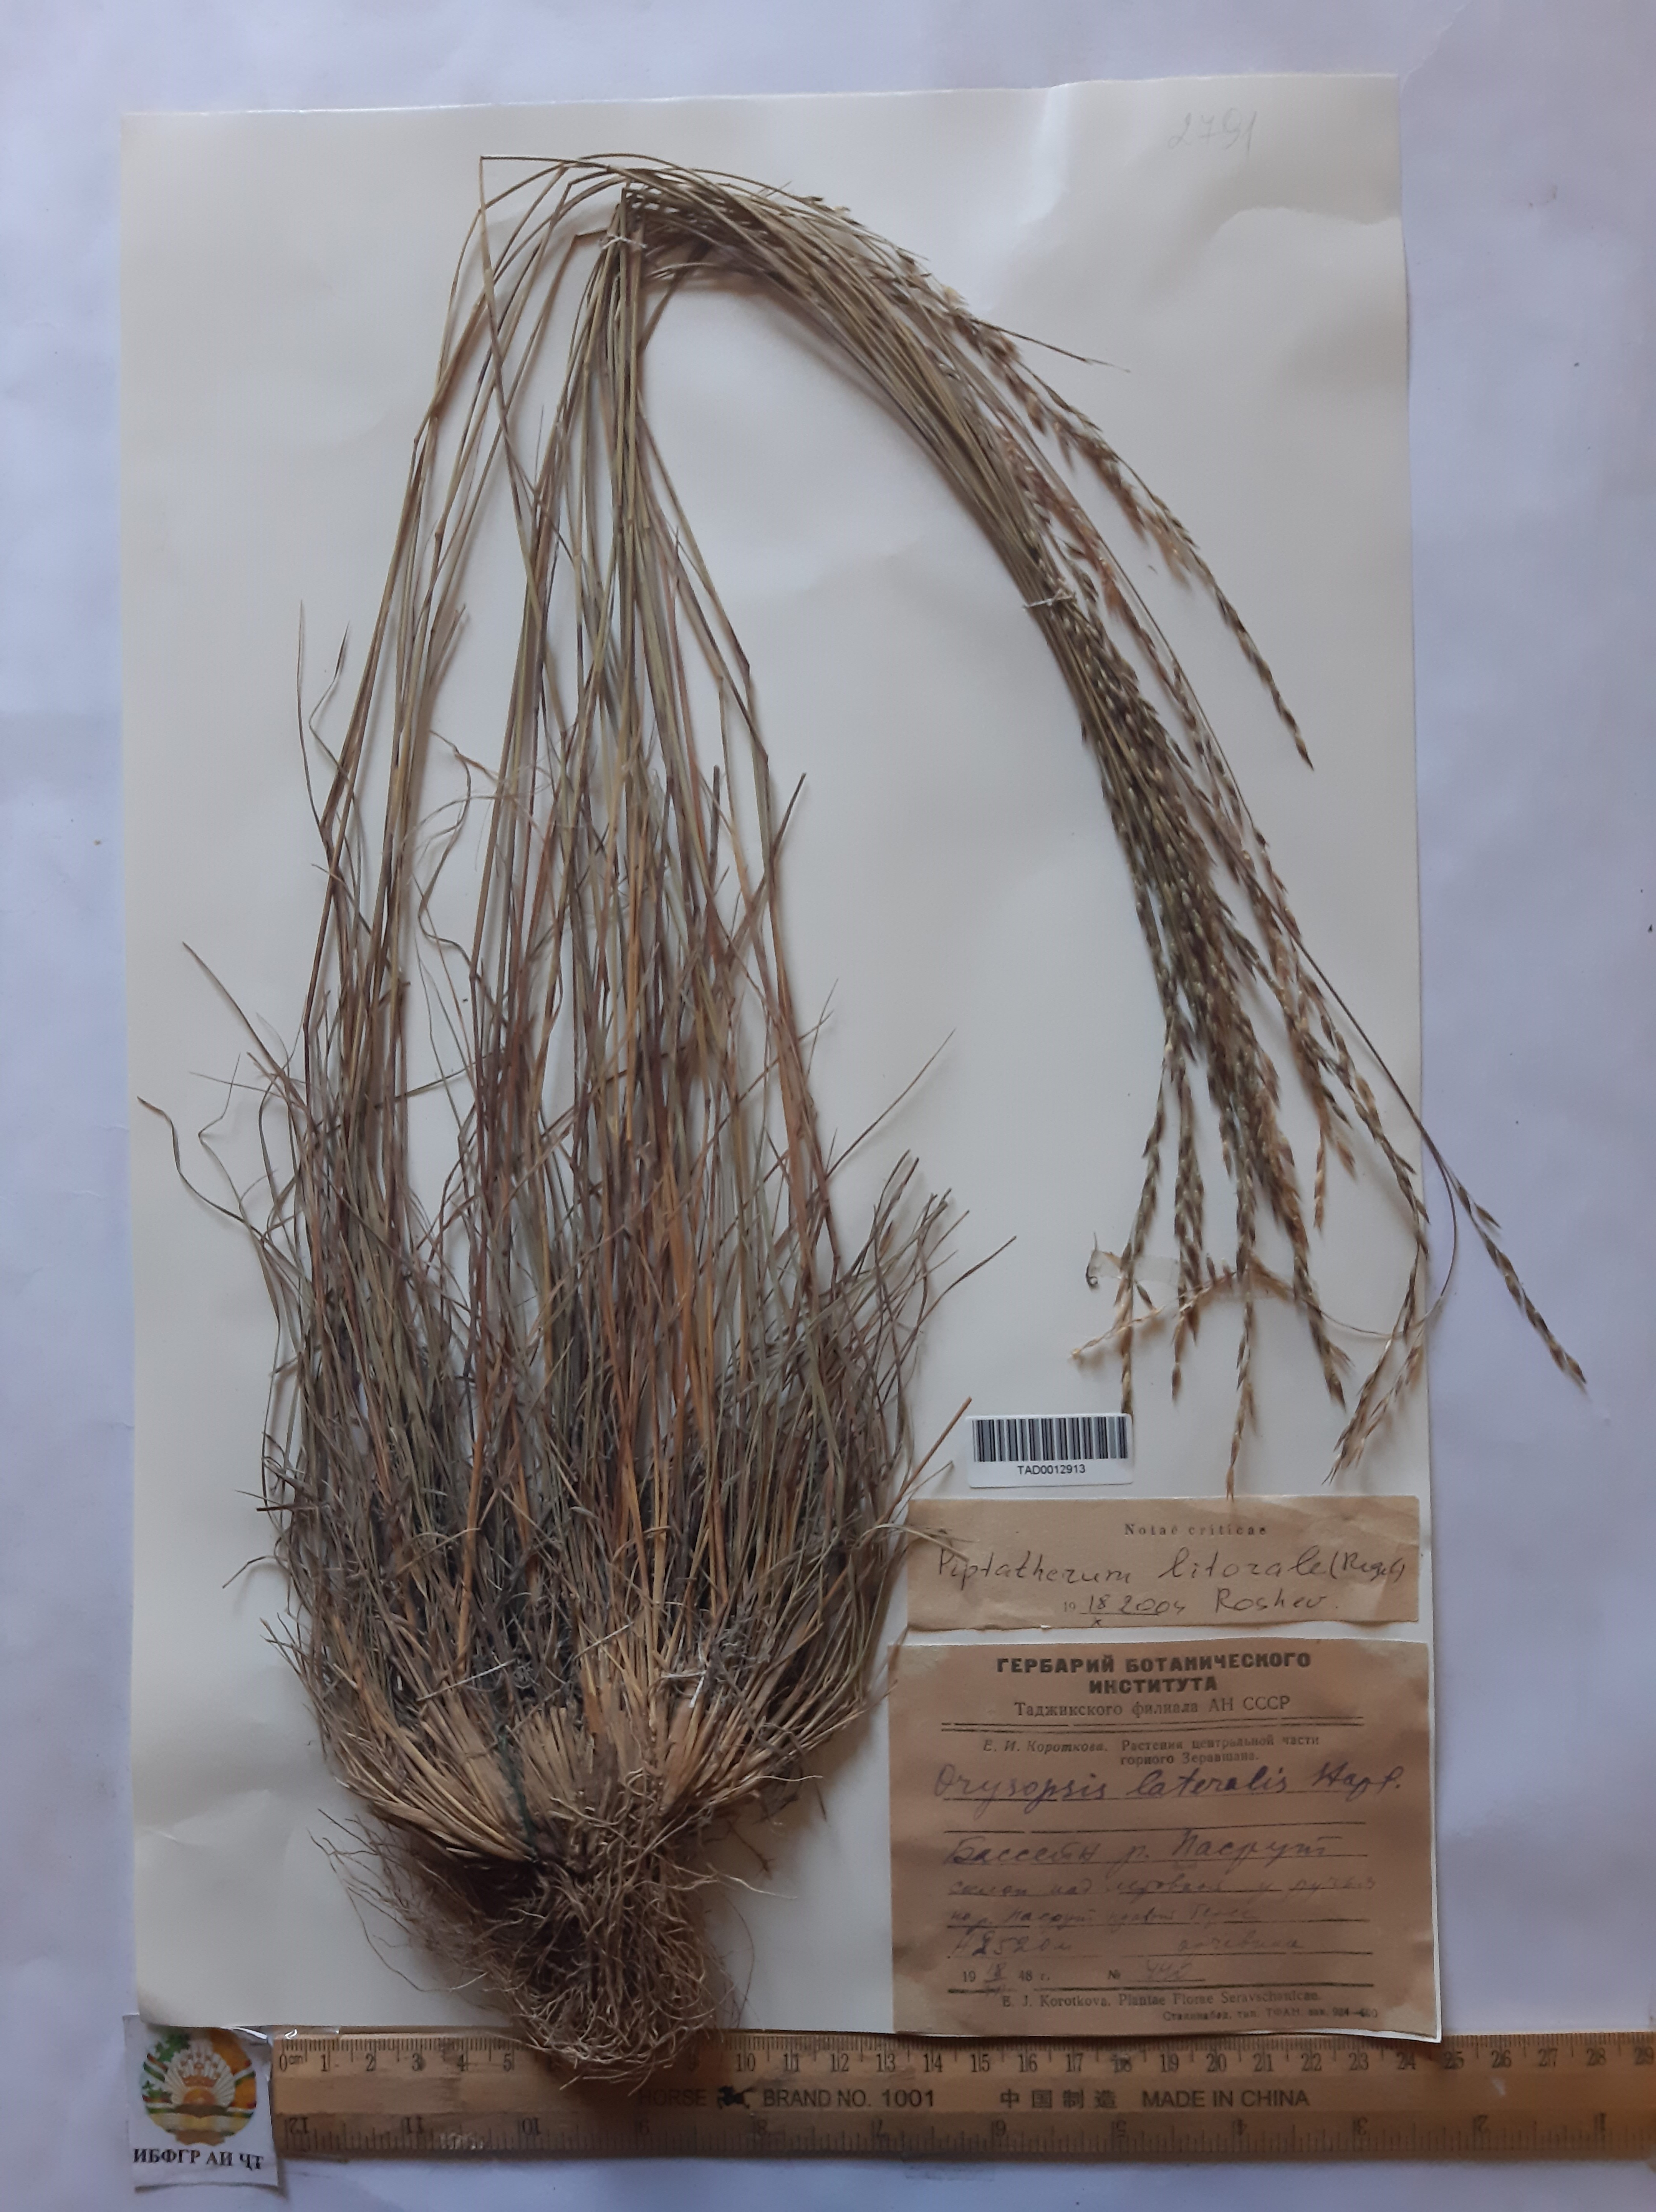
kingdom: Plantae
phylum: Tracheophyta
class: Liliopsida
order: Poales
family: Poaceae
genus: Piptatherum
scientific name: Piptatherum laterale
